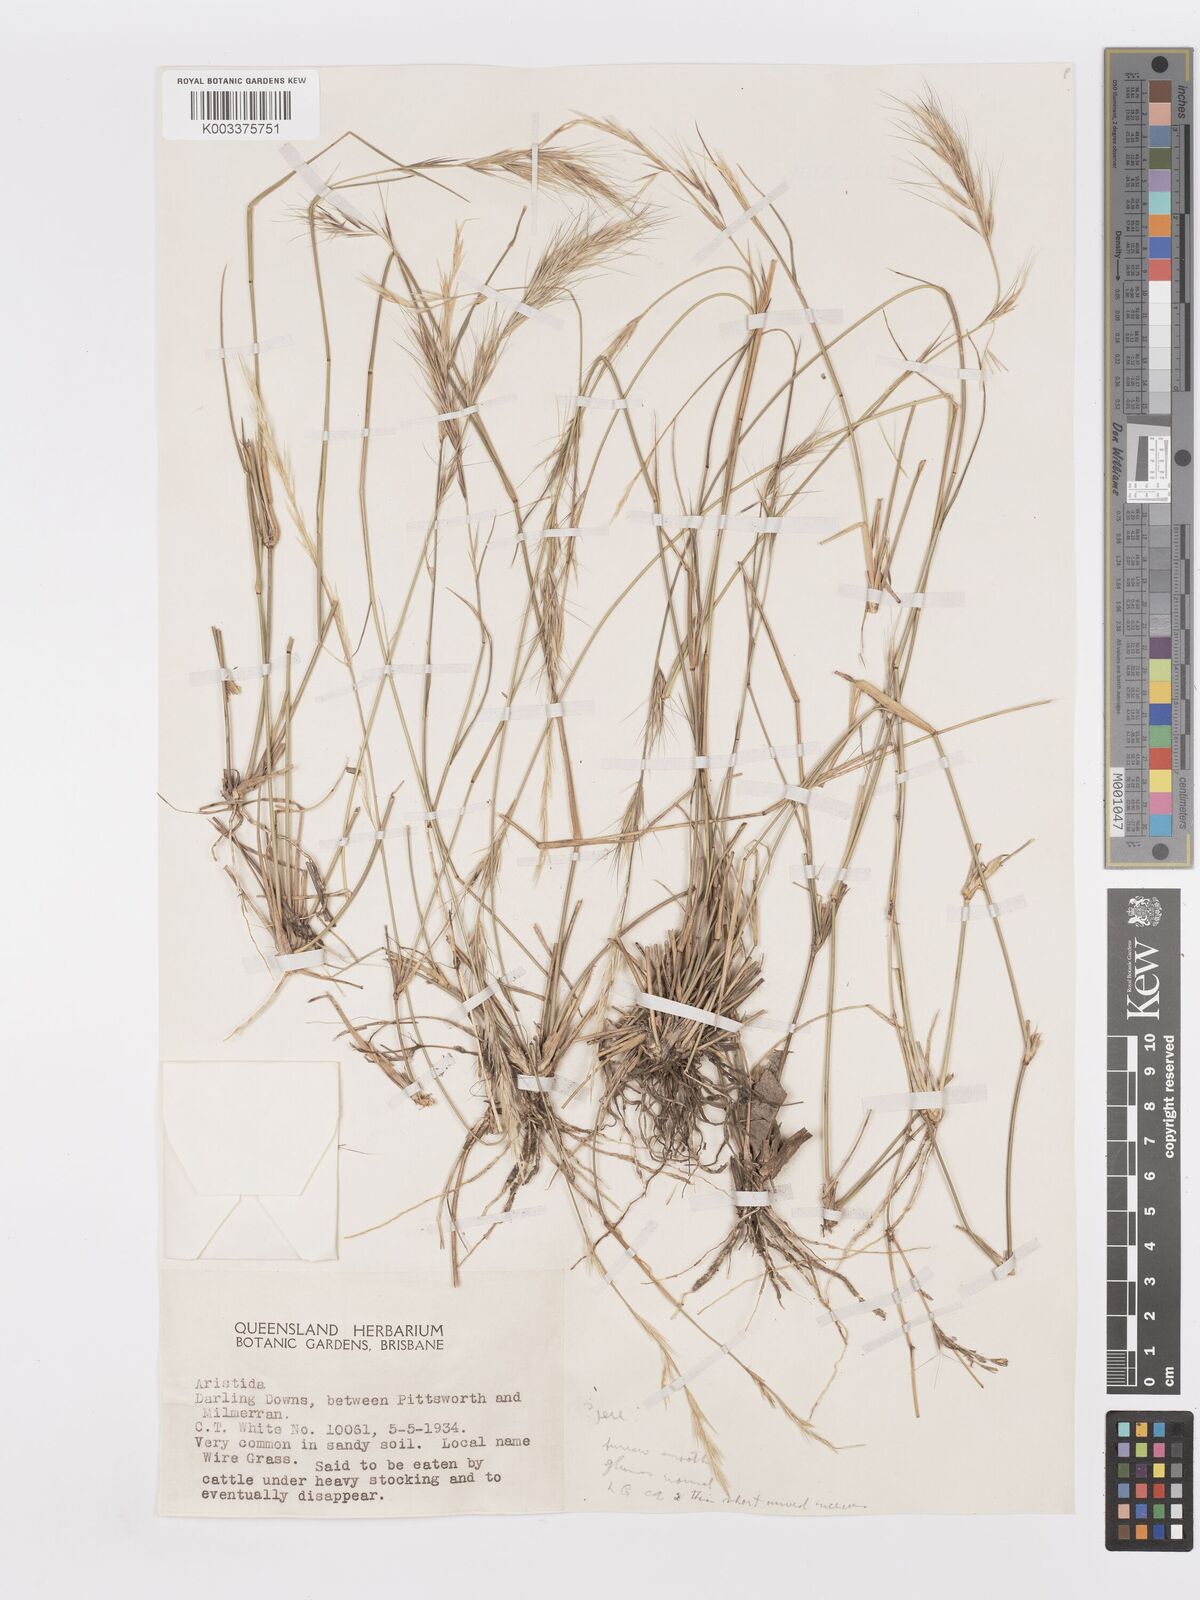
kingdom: Plantae
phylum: Tracheophyta
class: Liliopsida
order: Poales
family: Poaceae
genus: Aristida
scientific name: Aristida
